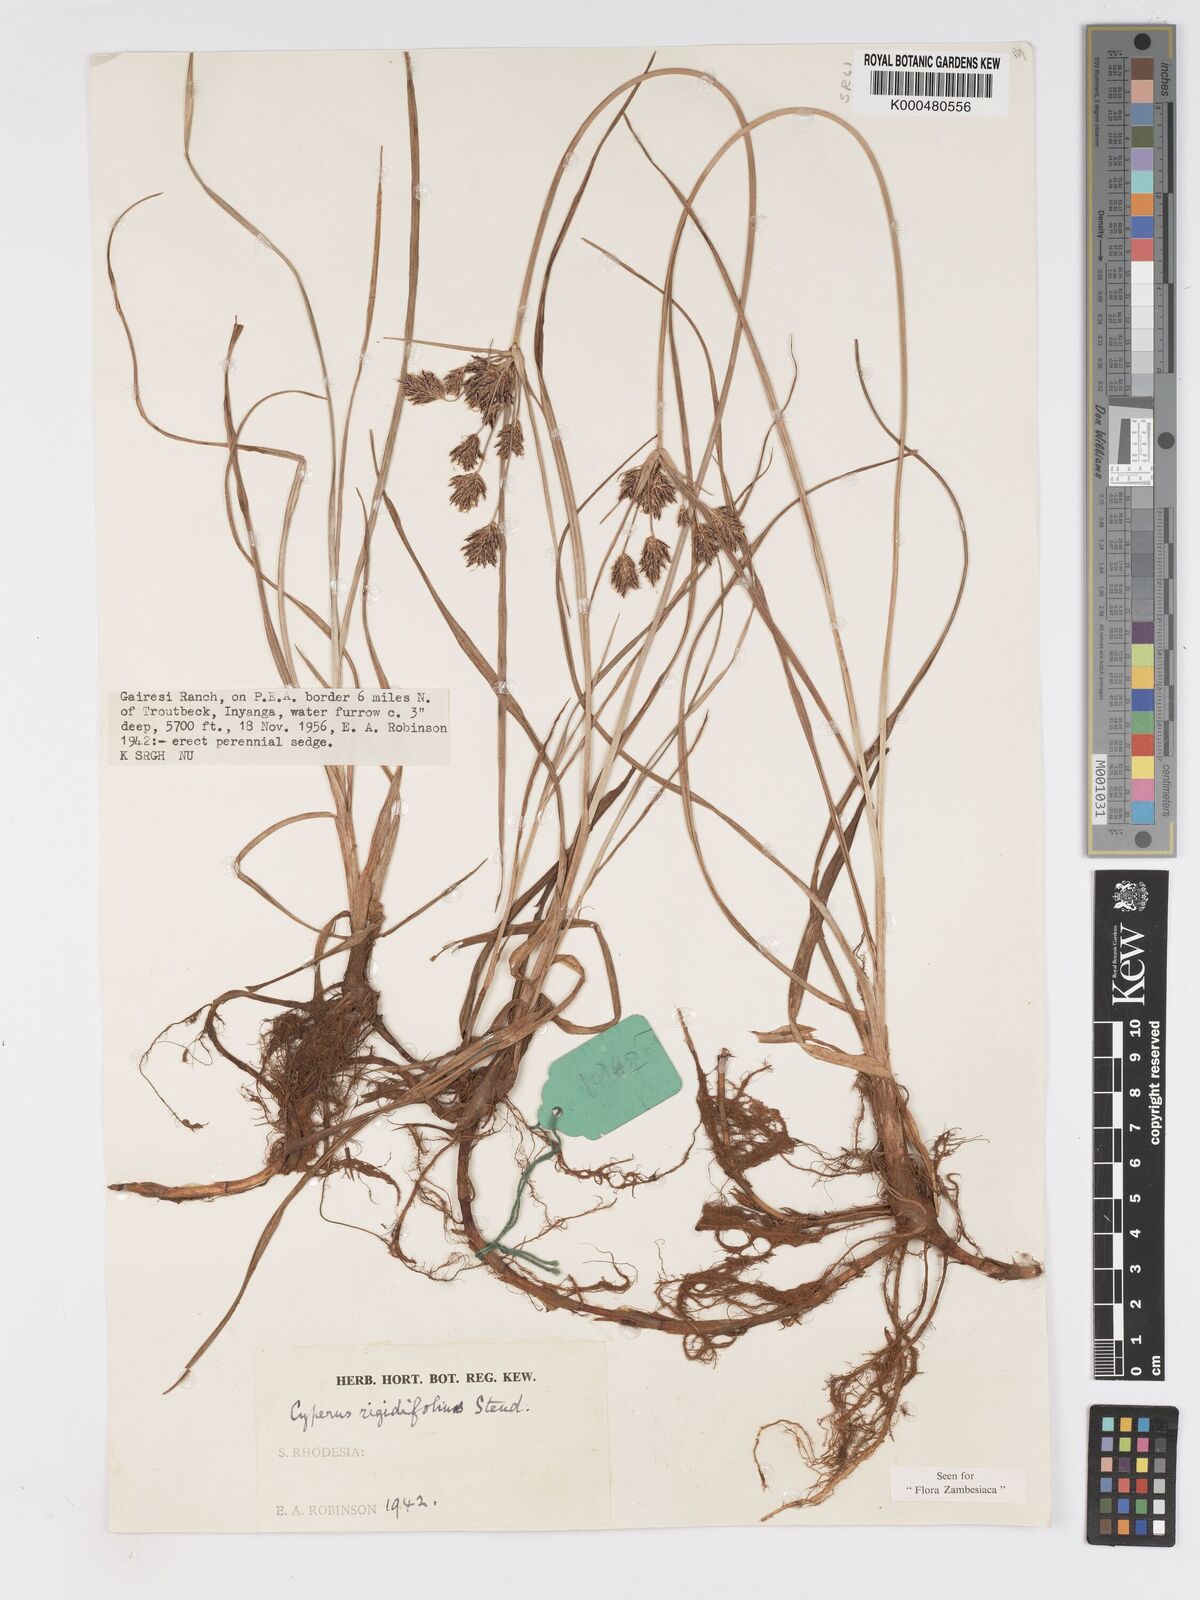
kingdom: Plantae
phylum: Tracheophyta
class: Liliopsida
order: Poales
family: Cyperaceae
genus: Cyperus
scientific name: Cyperus rigidifolius
